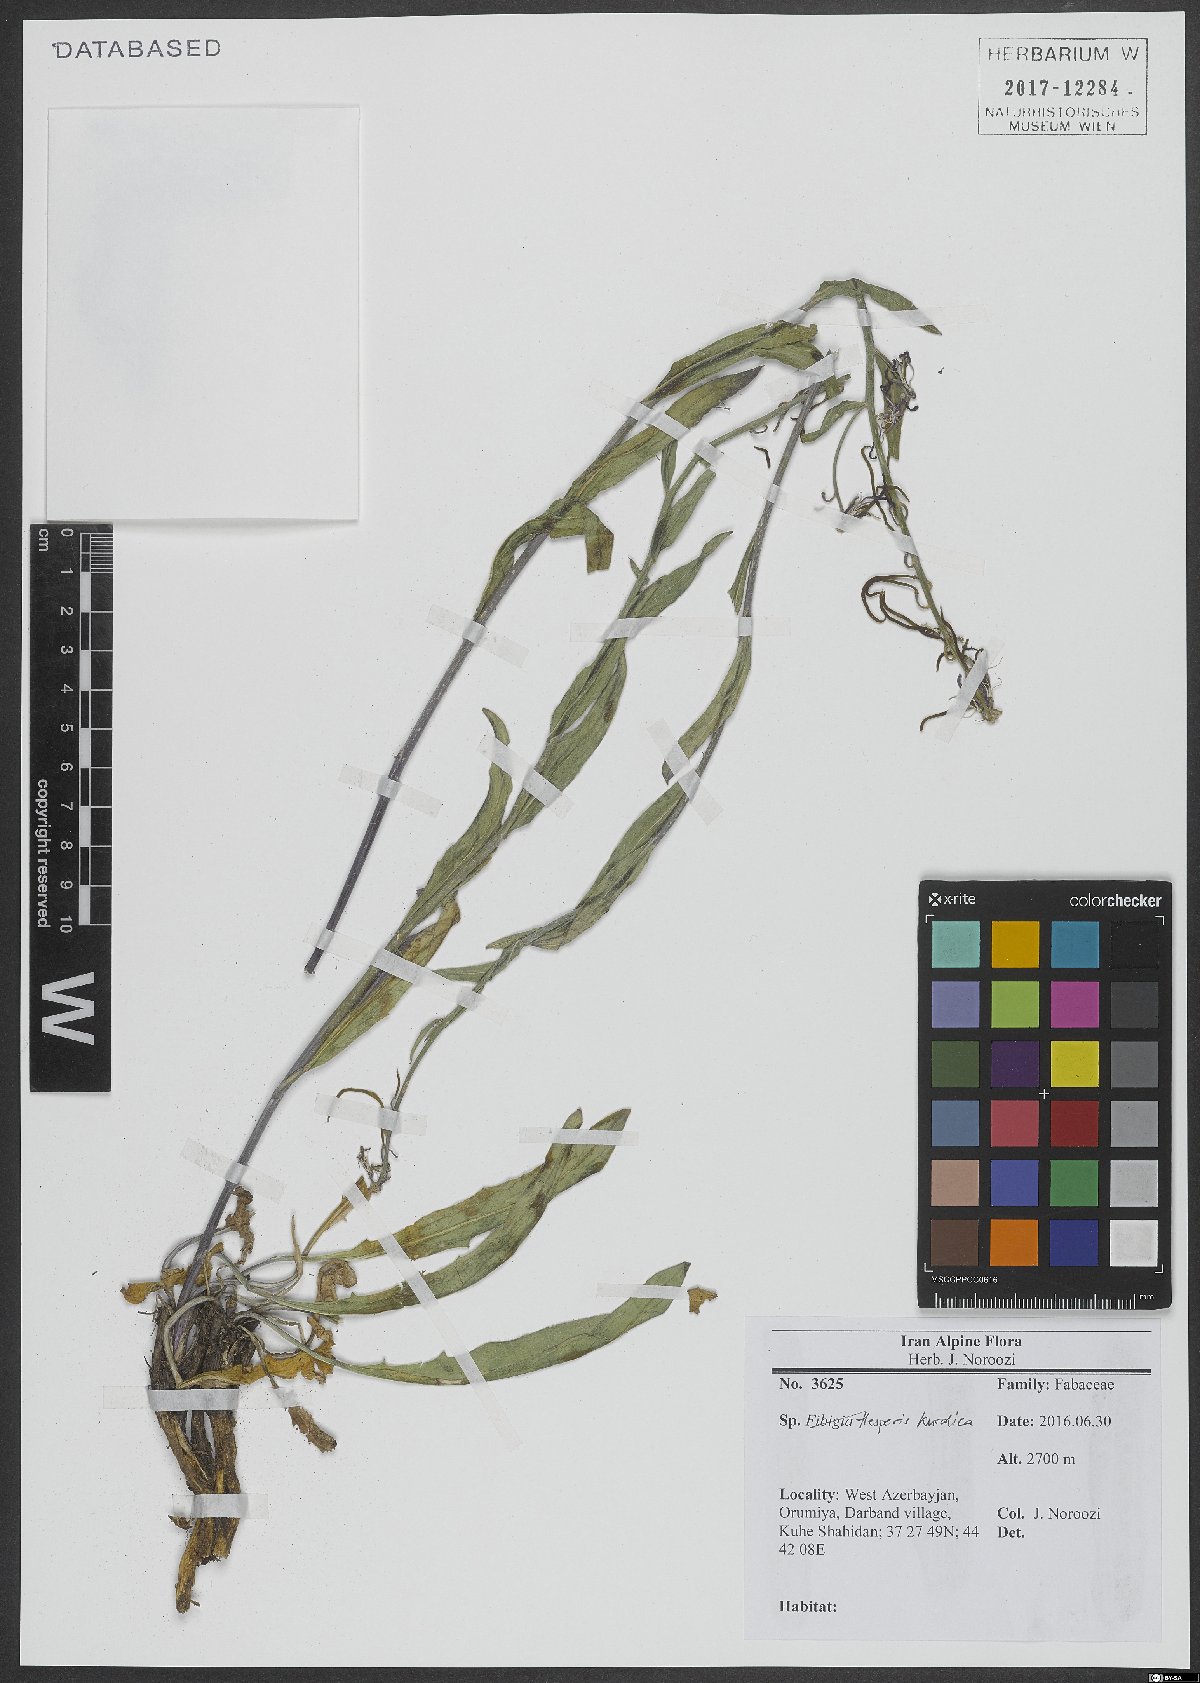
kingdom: Plantae
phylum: Tracheophyta
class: Magnoliopsida
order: Brassicales
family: Brassicaceae
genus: Hesperis
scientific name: Hesperis kurdica
